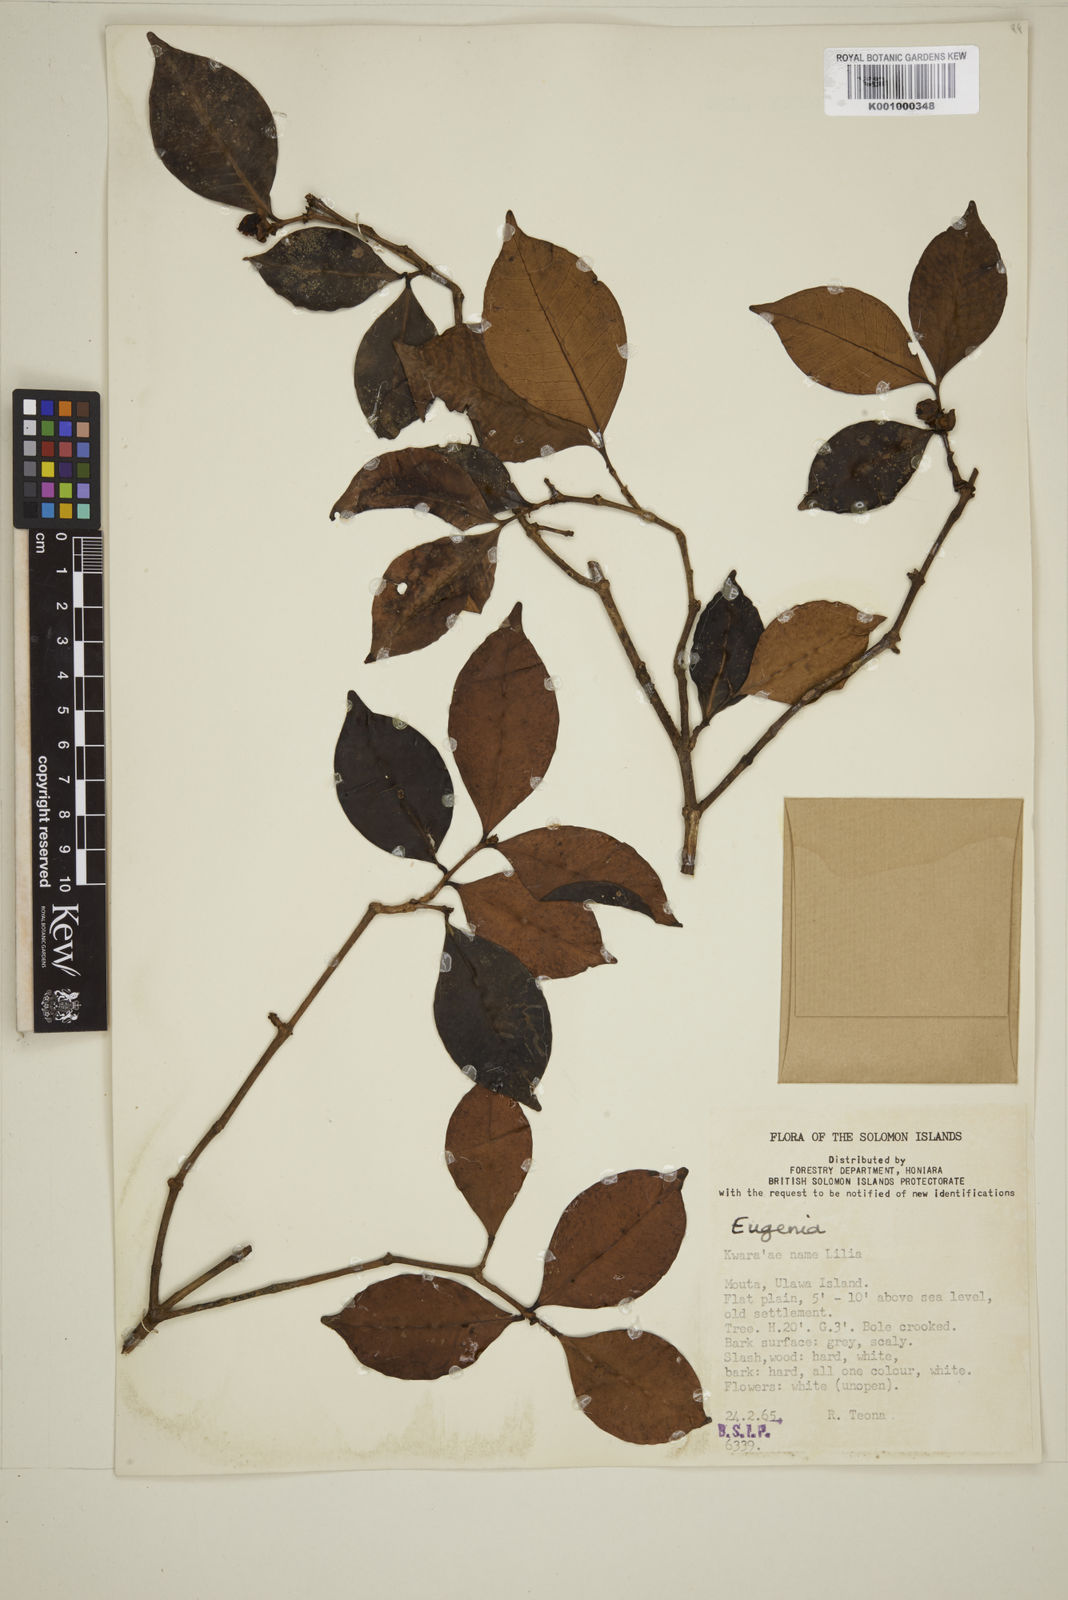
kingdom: Plantae
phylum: Tracheophyta
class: Magnoliopsida
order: Myrtales
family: Myrtaceae
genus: Eugenia
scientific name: Eugenia
